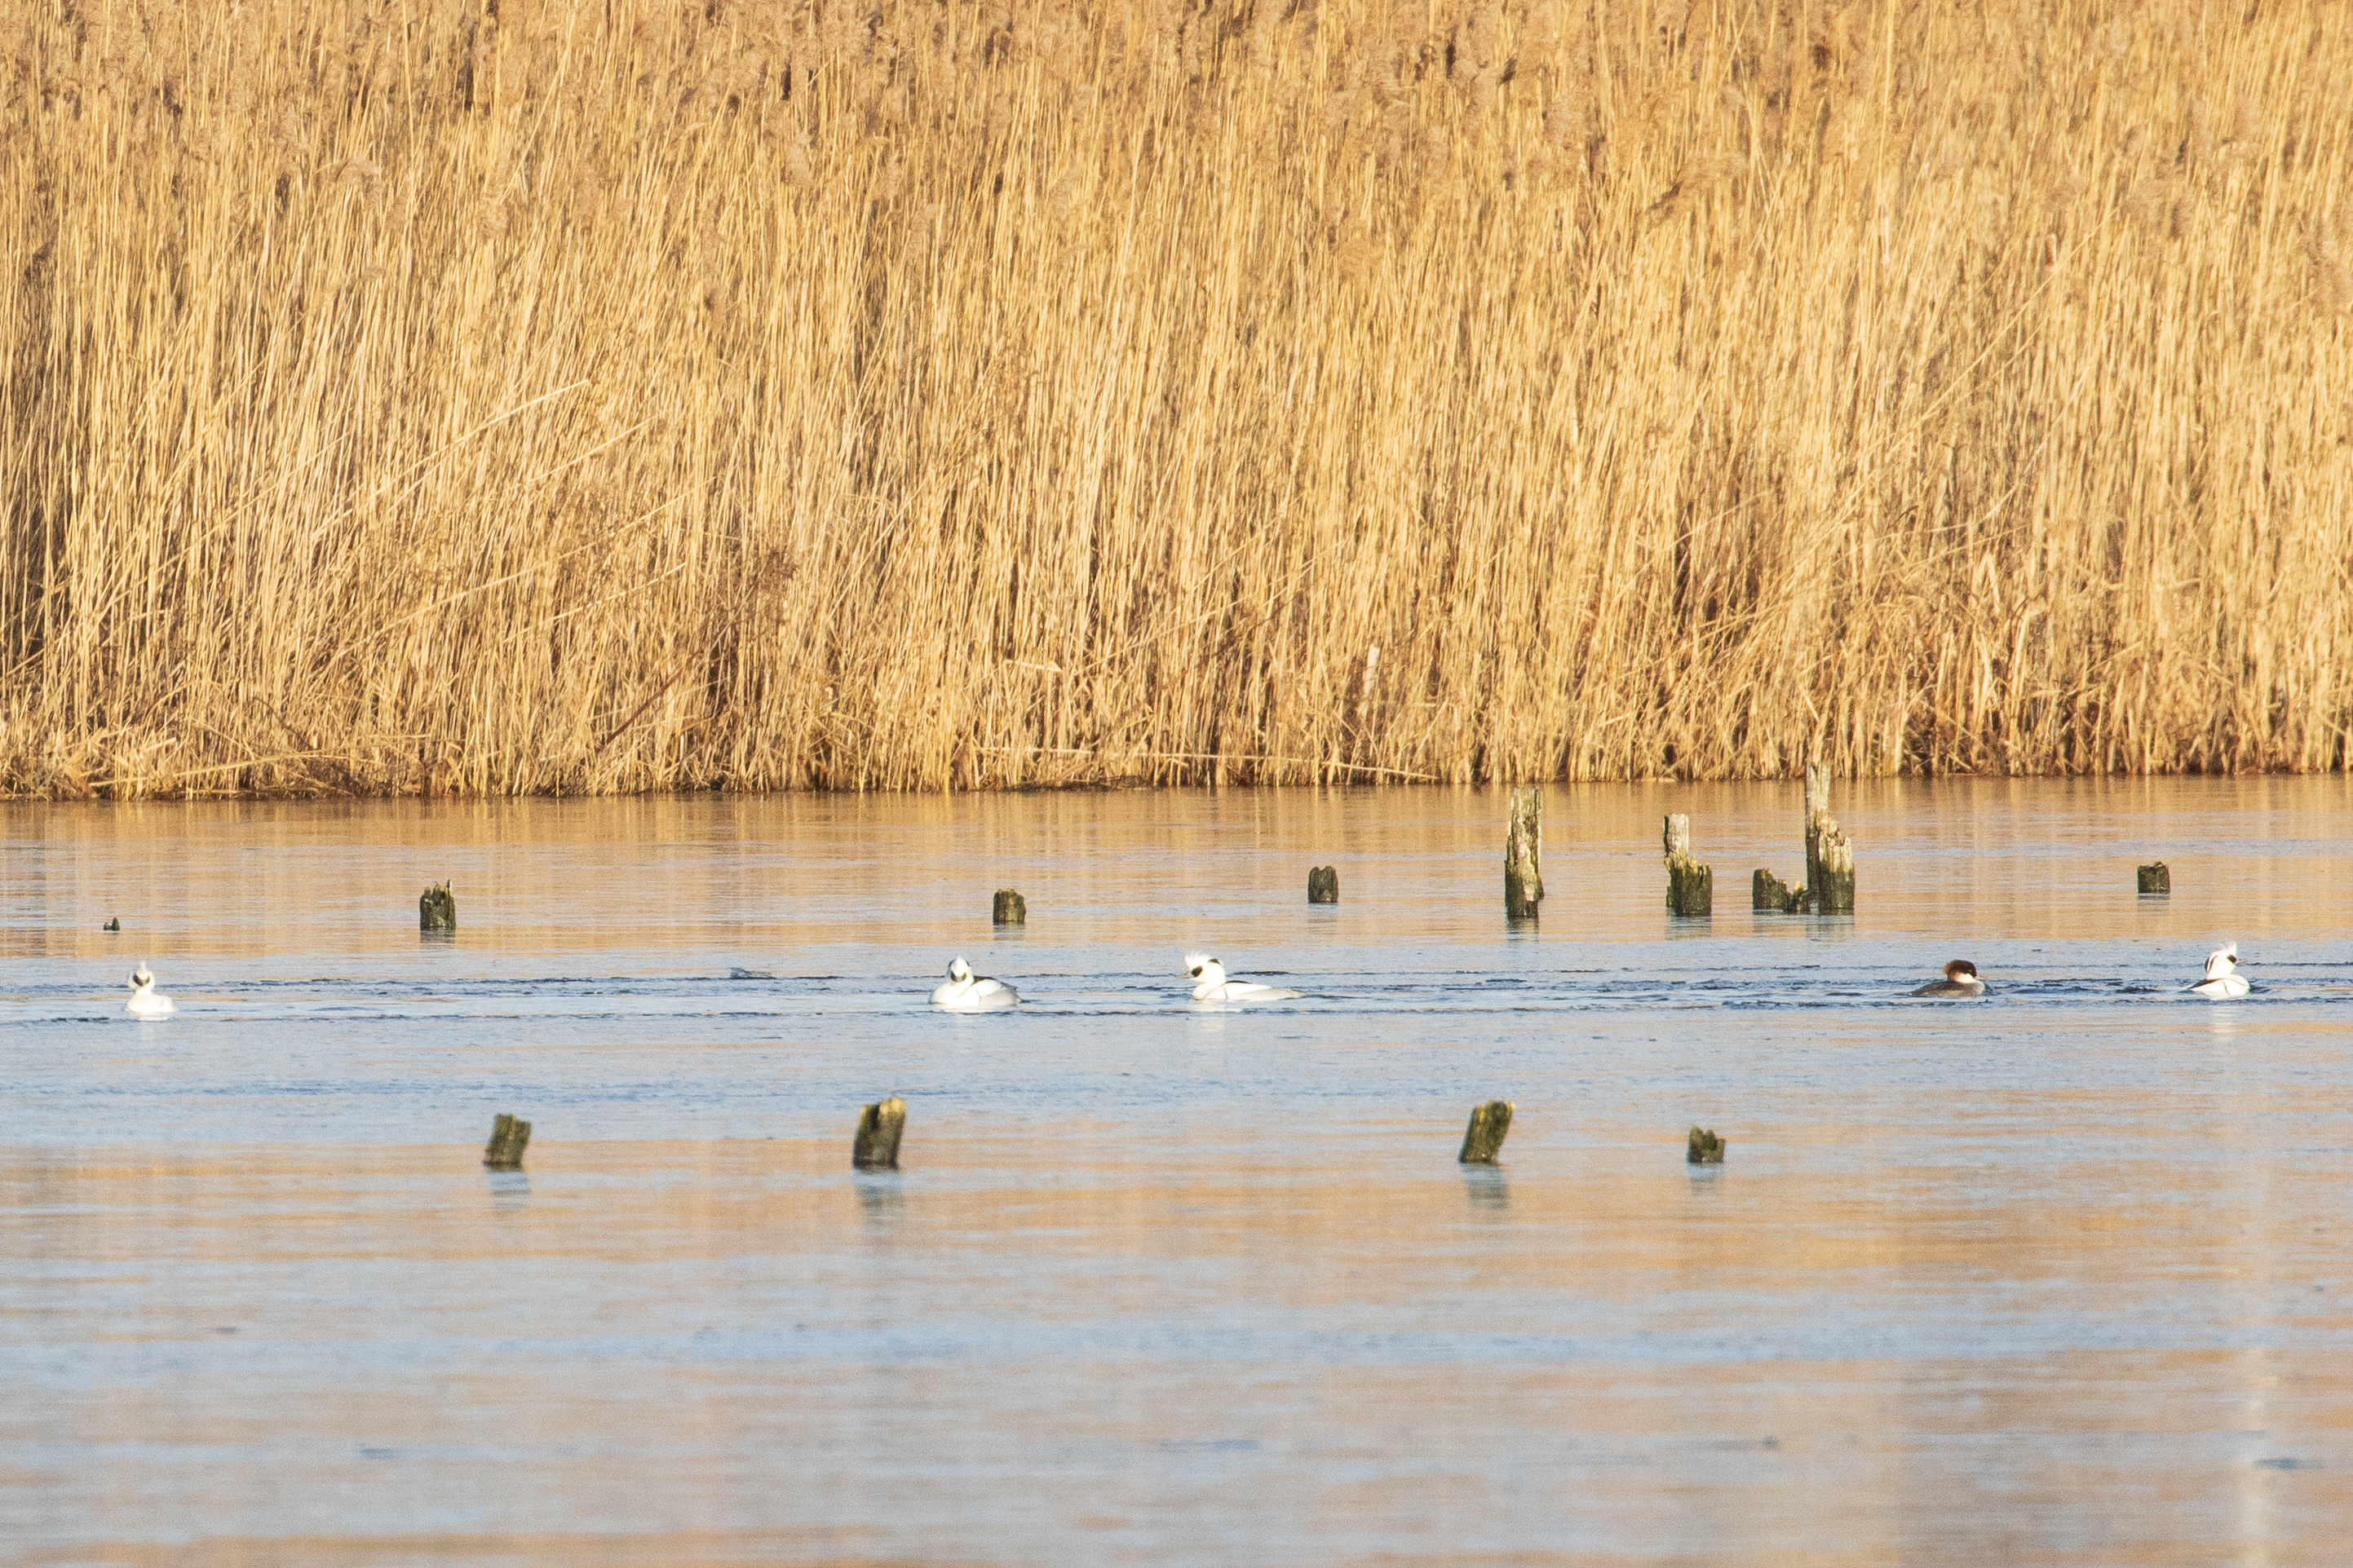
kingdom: Animalia
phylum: Chordata
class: Aves
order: Anseriformes
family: Anatidae
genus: Mergellus
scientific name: Mergellus albellus
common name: Lille skallesluger
